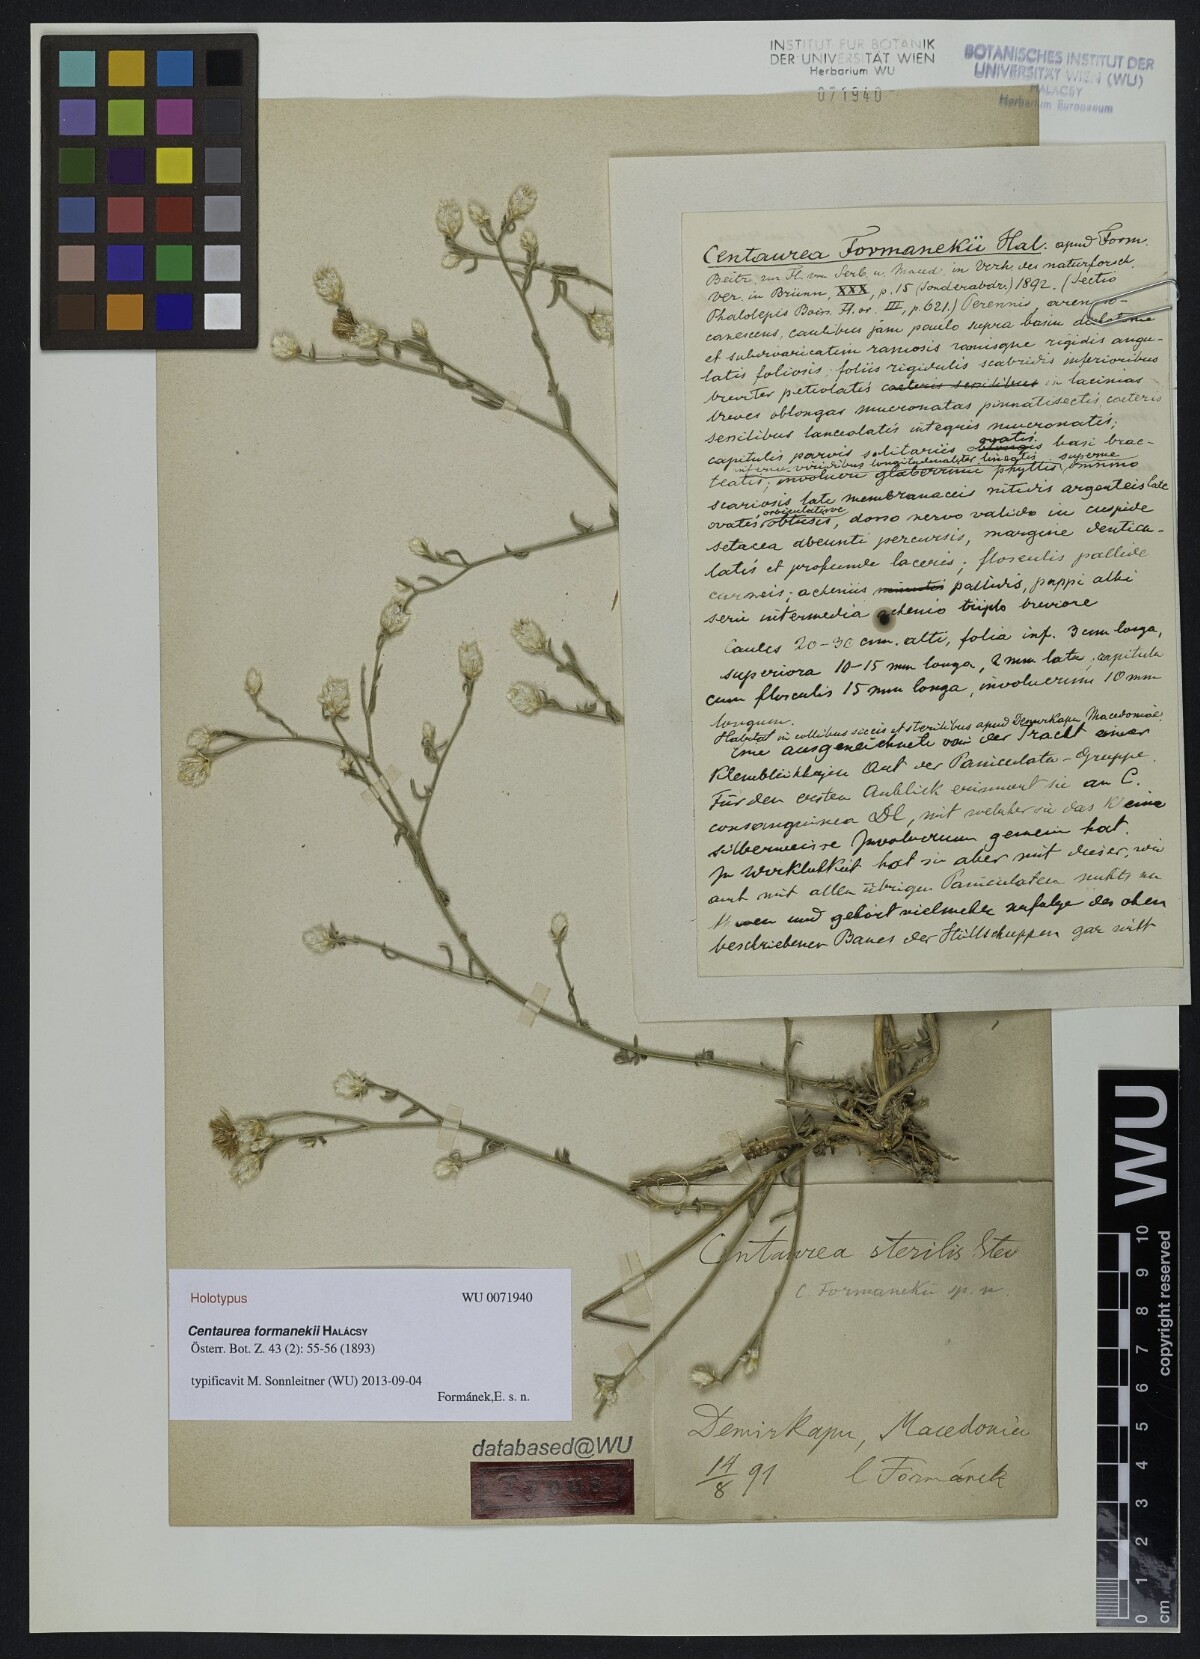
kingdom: Plantae
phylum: Tracheophyta
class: Magnoliopsida
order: Asterales
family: Asteraceae
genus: Centaurea
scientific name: Centaurea formanekii
